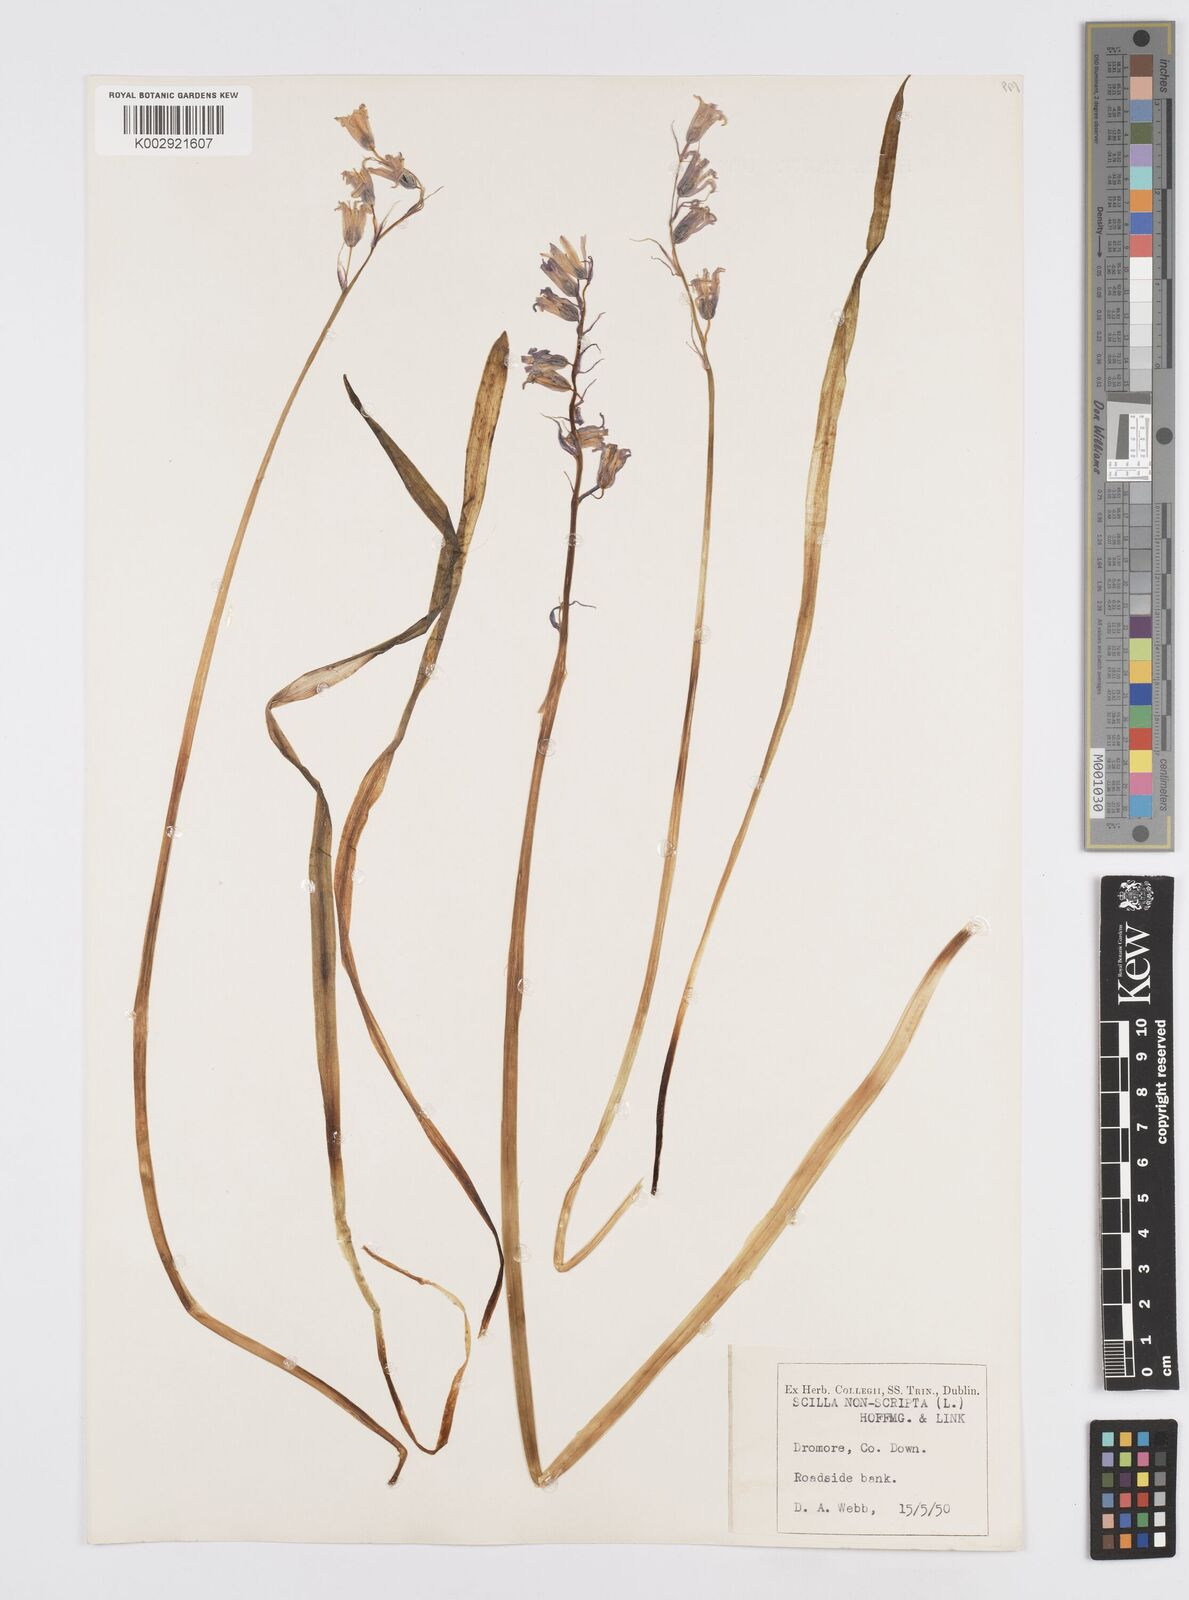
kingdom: Plantae
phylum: Tracheophyta
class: Liliopsida
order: Asparagales
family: Asparagaceae
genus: Hyacinthoides
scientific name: Hyacinthoides non-scripta
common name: Bluebell
